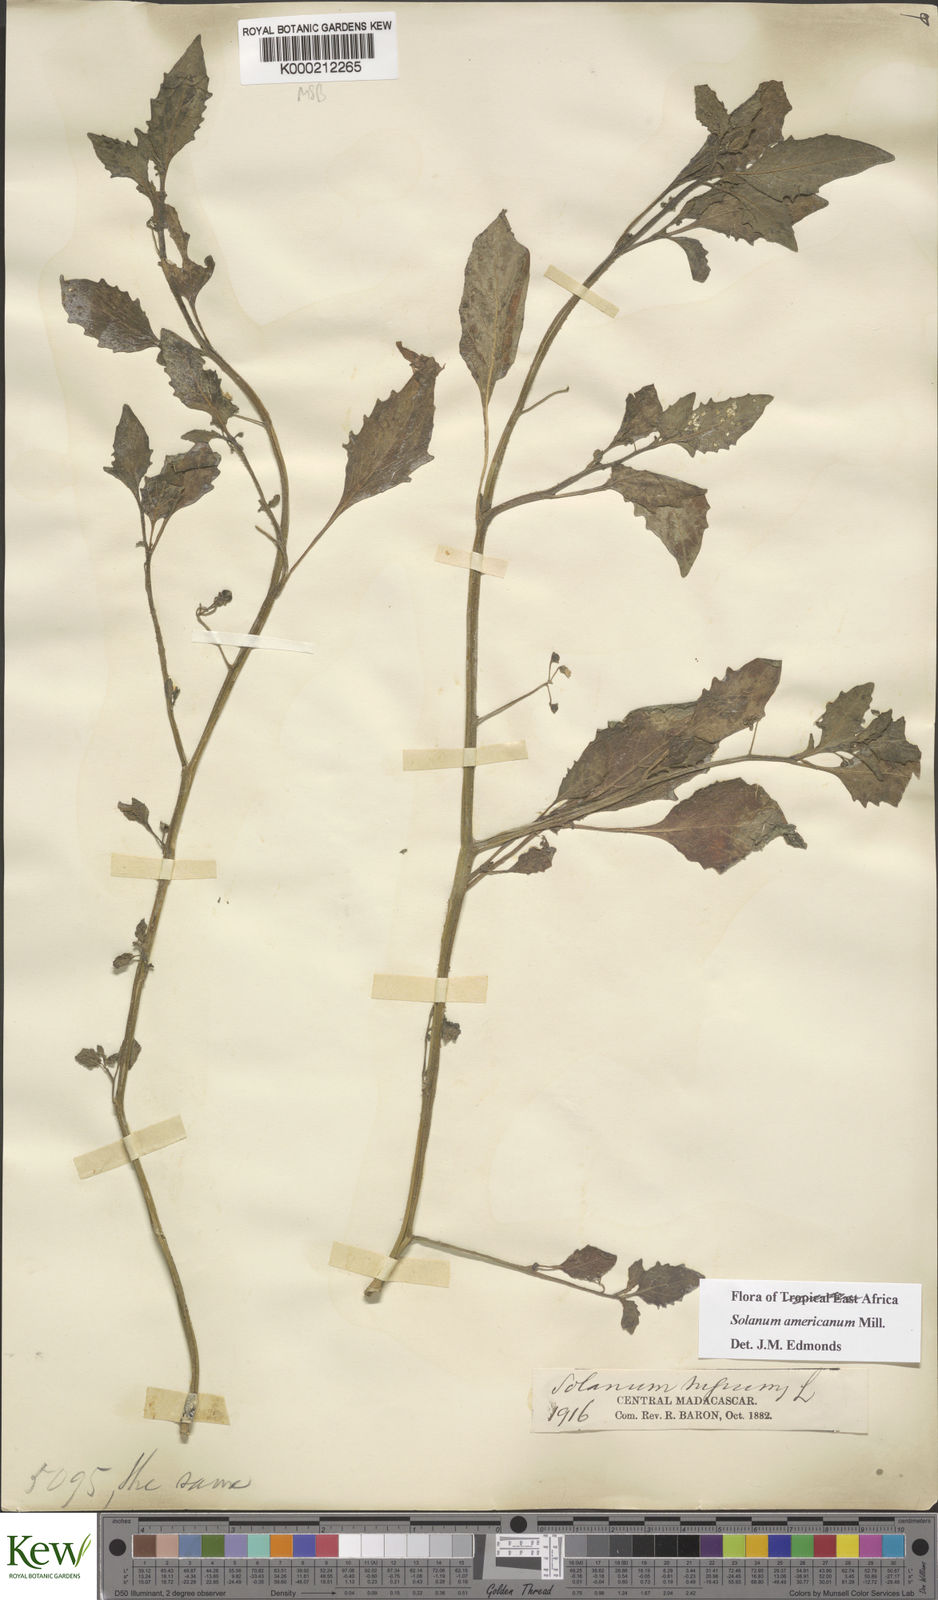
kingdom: Plantae
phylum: Tracheophyta
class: Magnoliopsida
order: Solanales
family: Solanaceae
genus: Solanum
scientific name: Solanum americanum
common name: American black nightshade
